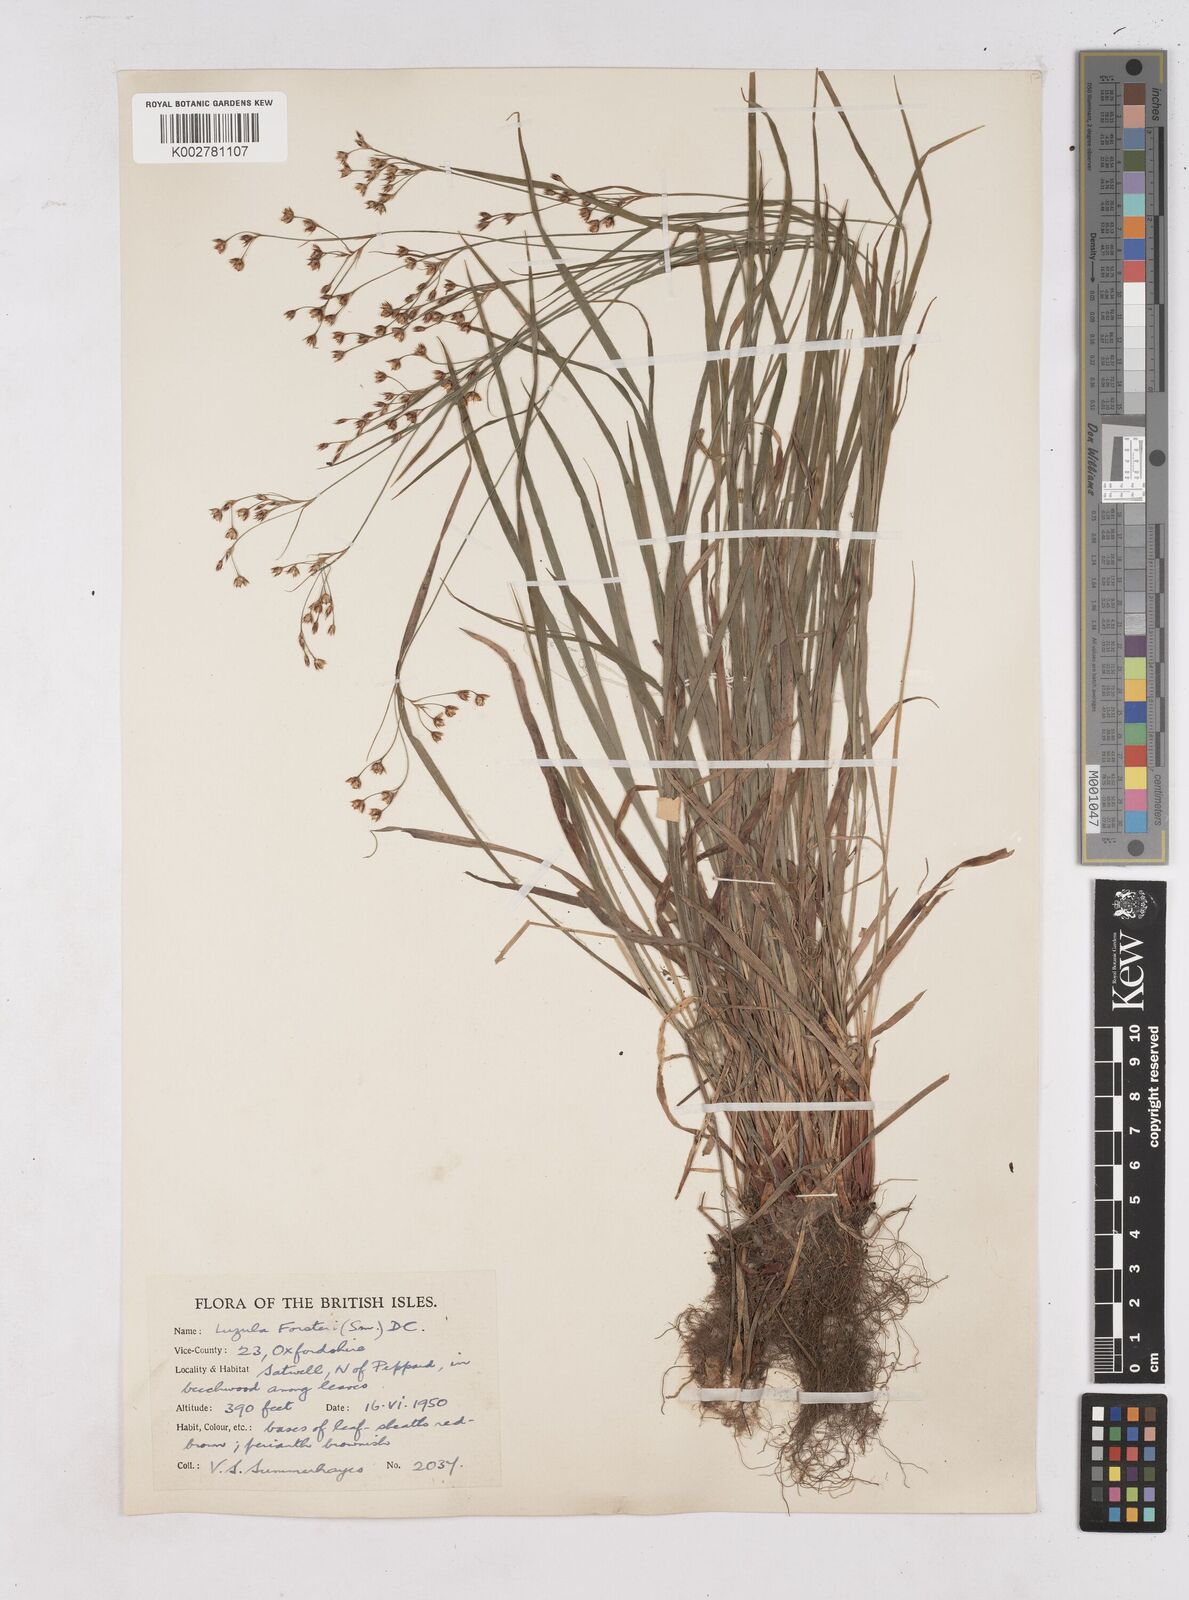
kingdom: Plantae
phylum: Tracheophyta
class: Liliopsida
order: Poales
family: Juncaceae
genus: Luzula
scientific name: Luzula forsteri
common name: Southern wood-rush
